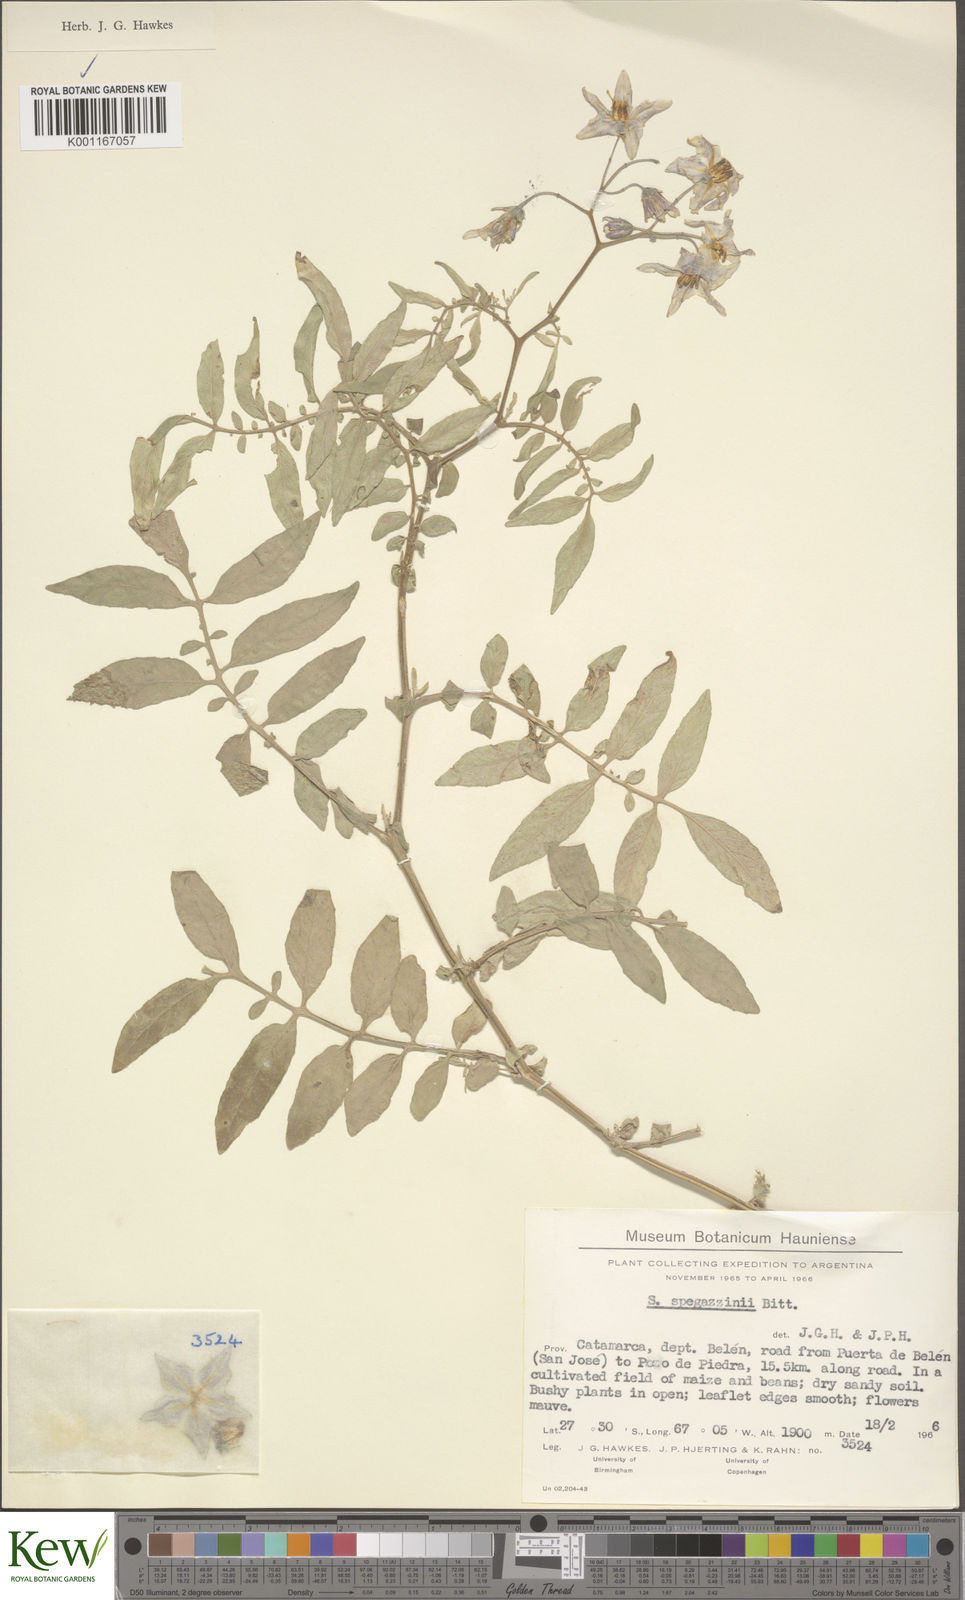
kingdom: Plantae
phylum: Tracheophyta
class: Magnoliopsida
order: Solanales
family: Solanaceae
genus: Solanum
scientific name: Solanum brevicaule
